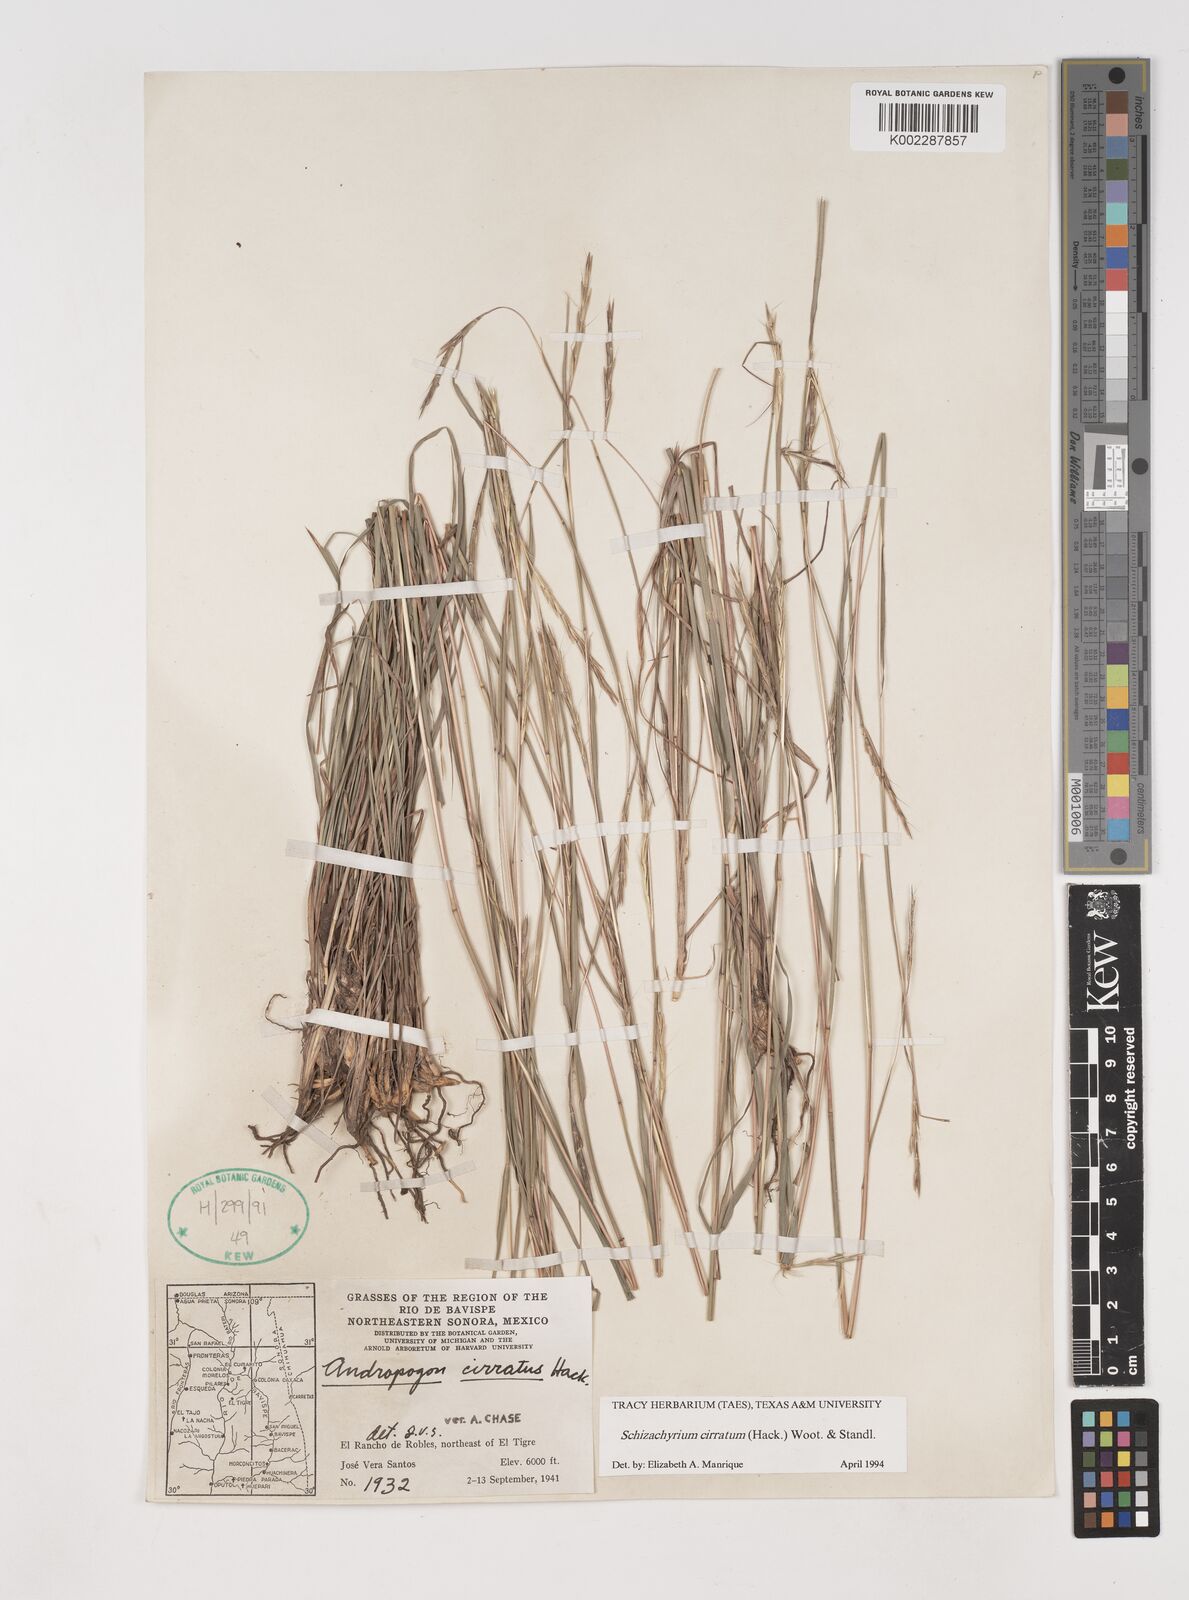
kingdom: Plantae
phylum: Tracheophyta
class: Liliopsida
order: Poales
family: Poaceae
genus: Andropogon
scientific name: Andropogon cirratus
